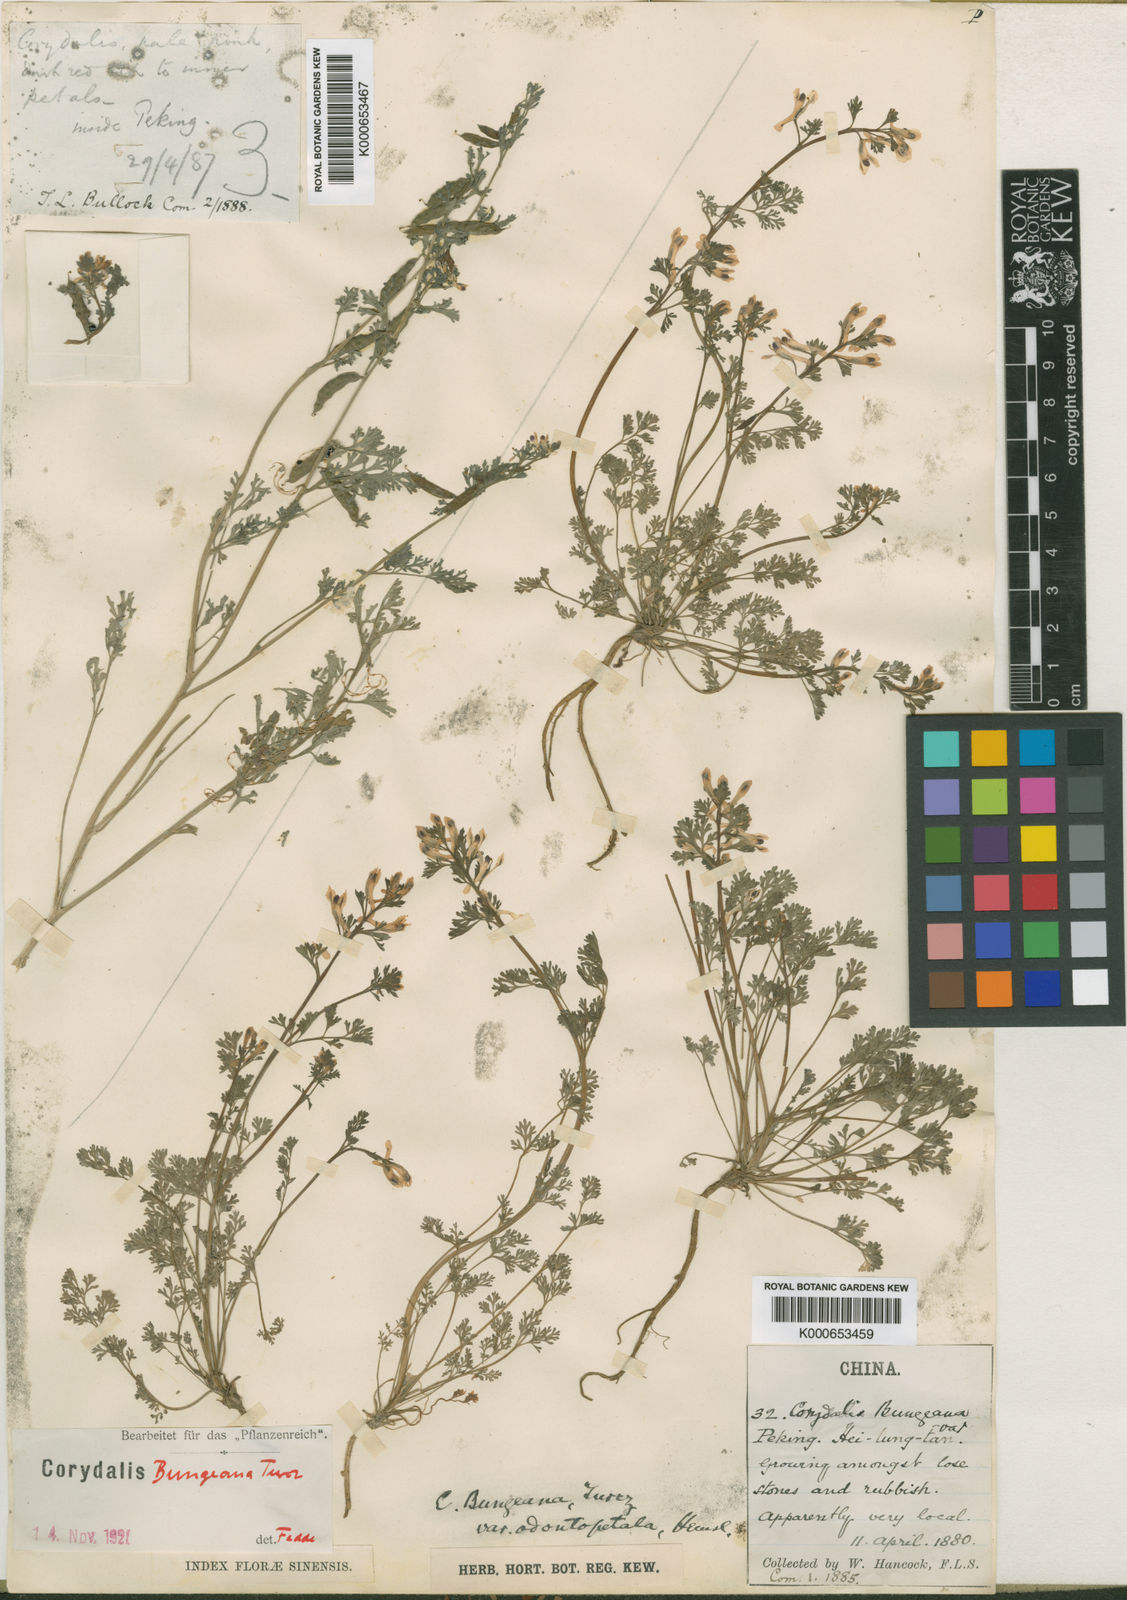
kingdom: Plantae
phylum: Tracheophyta
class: Magnoliopsida
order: Ranunculales
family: Papaveraceae
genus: Corydalis
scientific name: Corydalis bungeana
